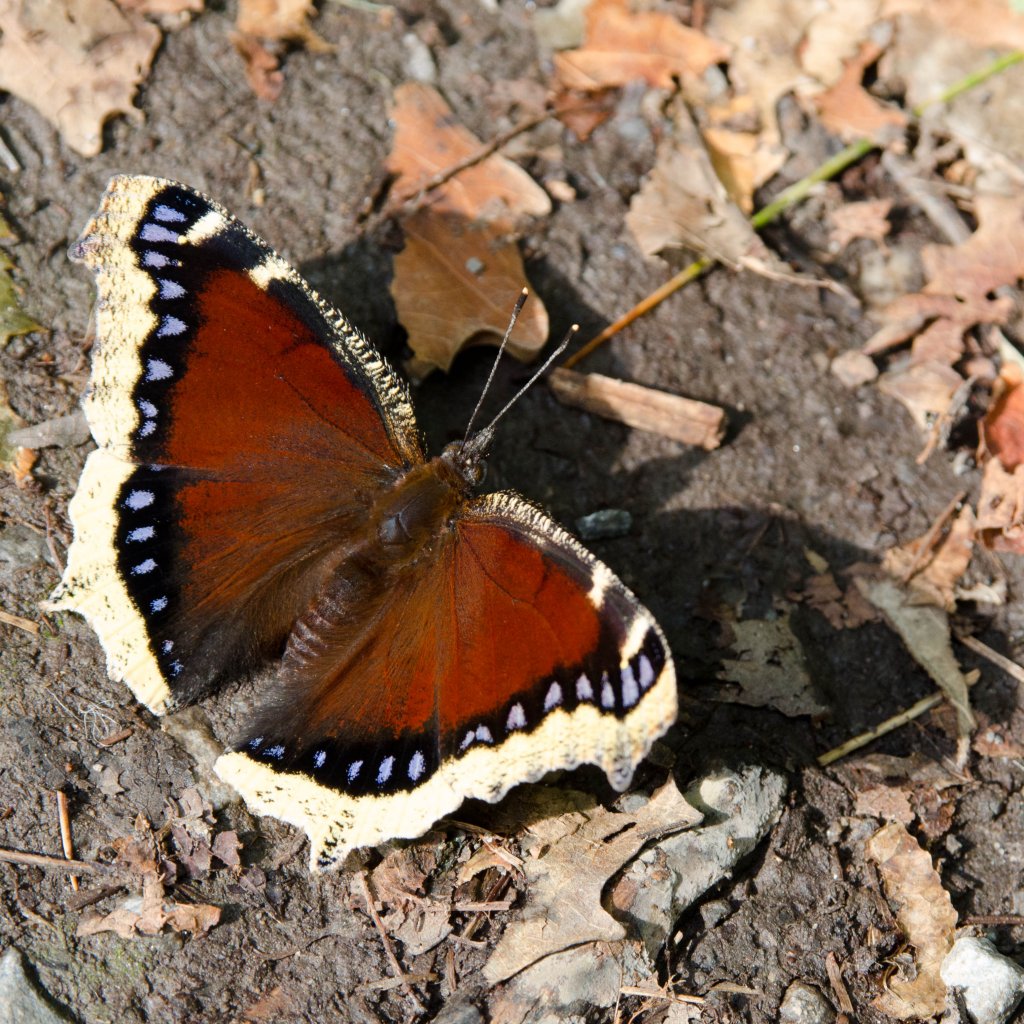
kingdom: Animalia
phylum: Arthropoda
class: Insecta
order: Lepidoptera
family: Nymphalidae
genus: Nymphalis
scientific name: Nymphalis antiopa
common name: Mourning Cloak
